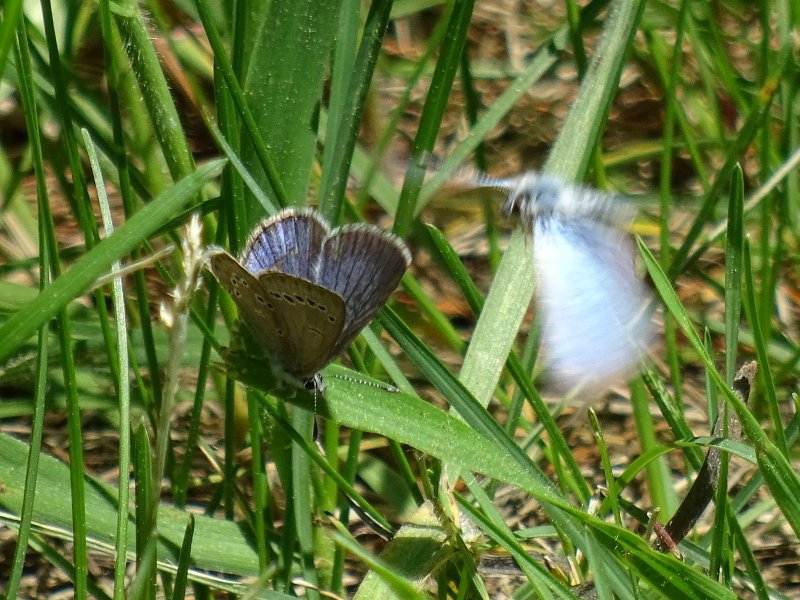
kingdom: Animalia
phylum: Arthropoda
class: Insecta
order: Lepidoptera
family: Lycaenidae
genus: Glaucopsyche
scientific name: Glaucopsyche lygdamus
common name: Silvery Blue
